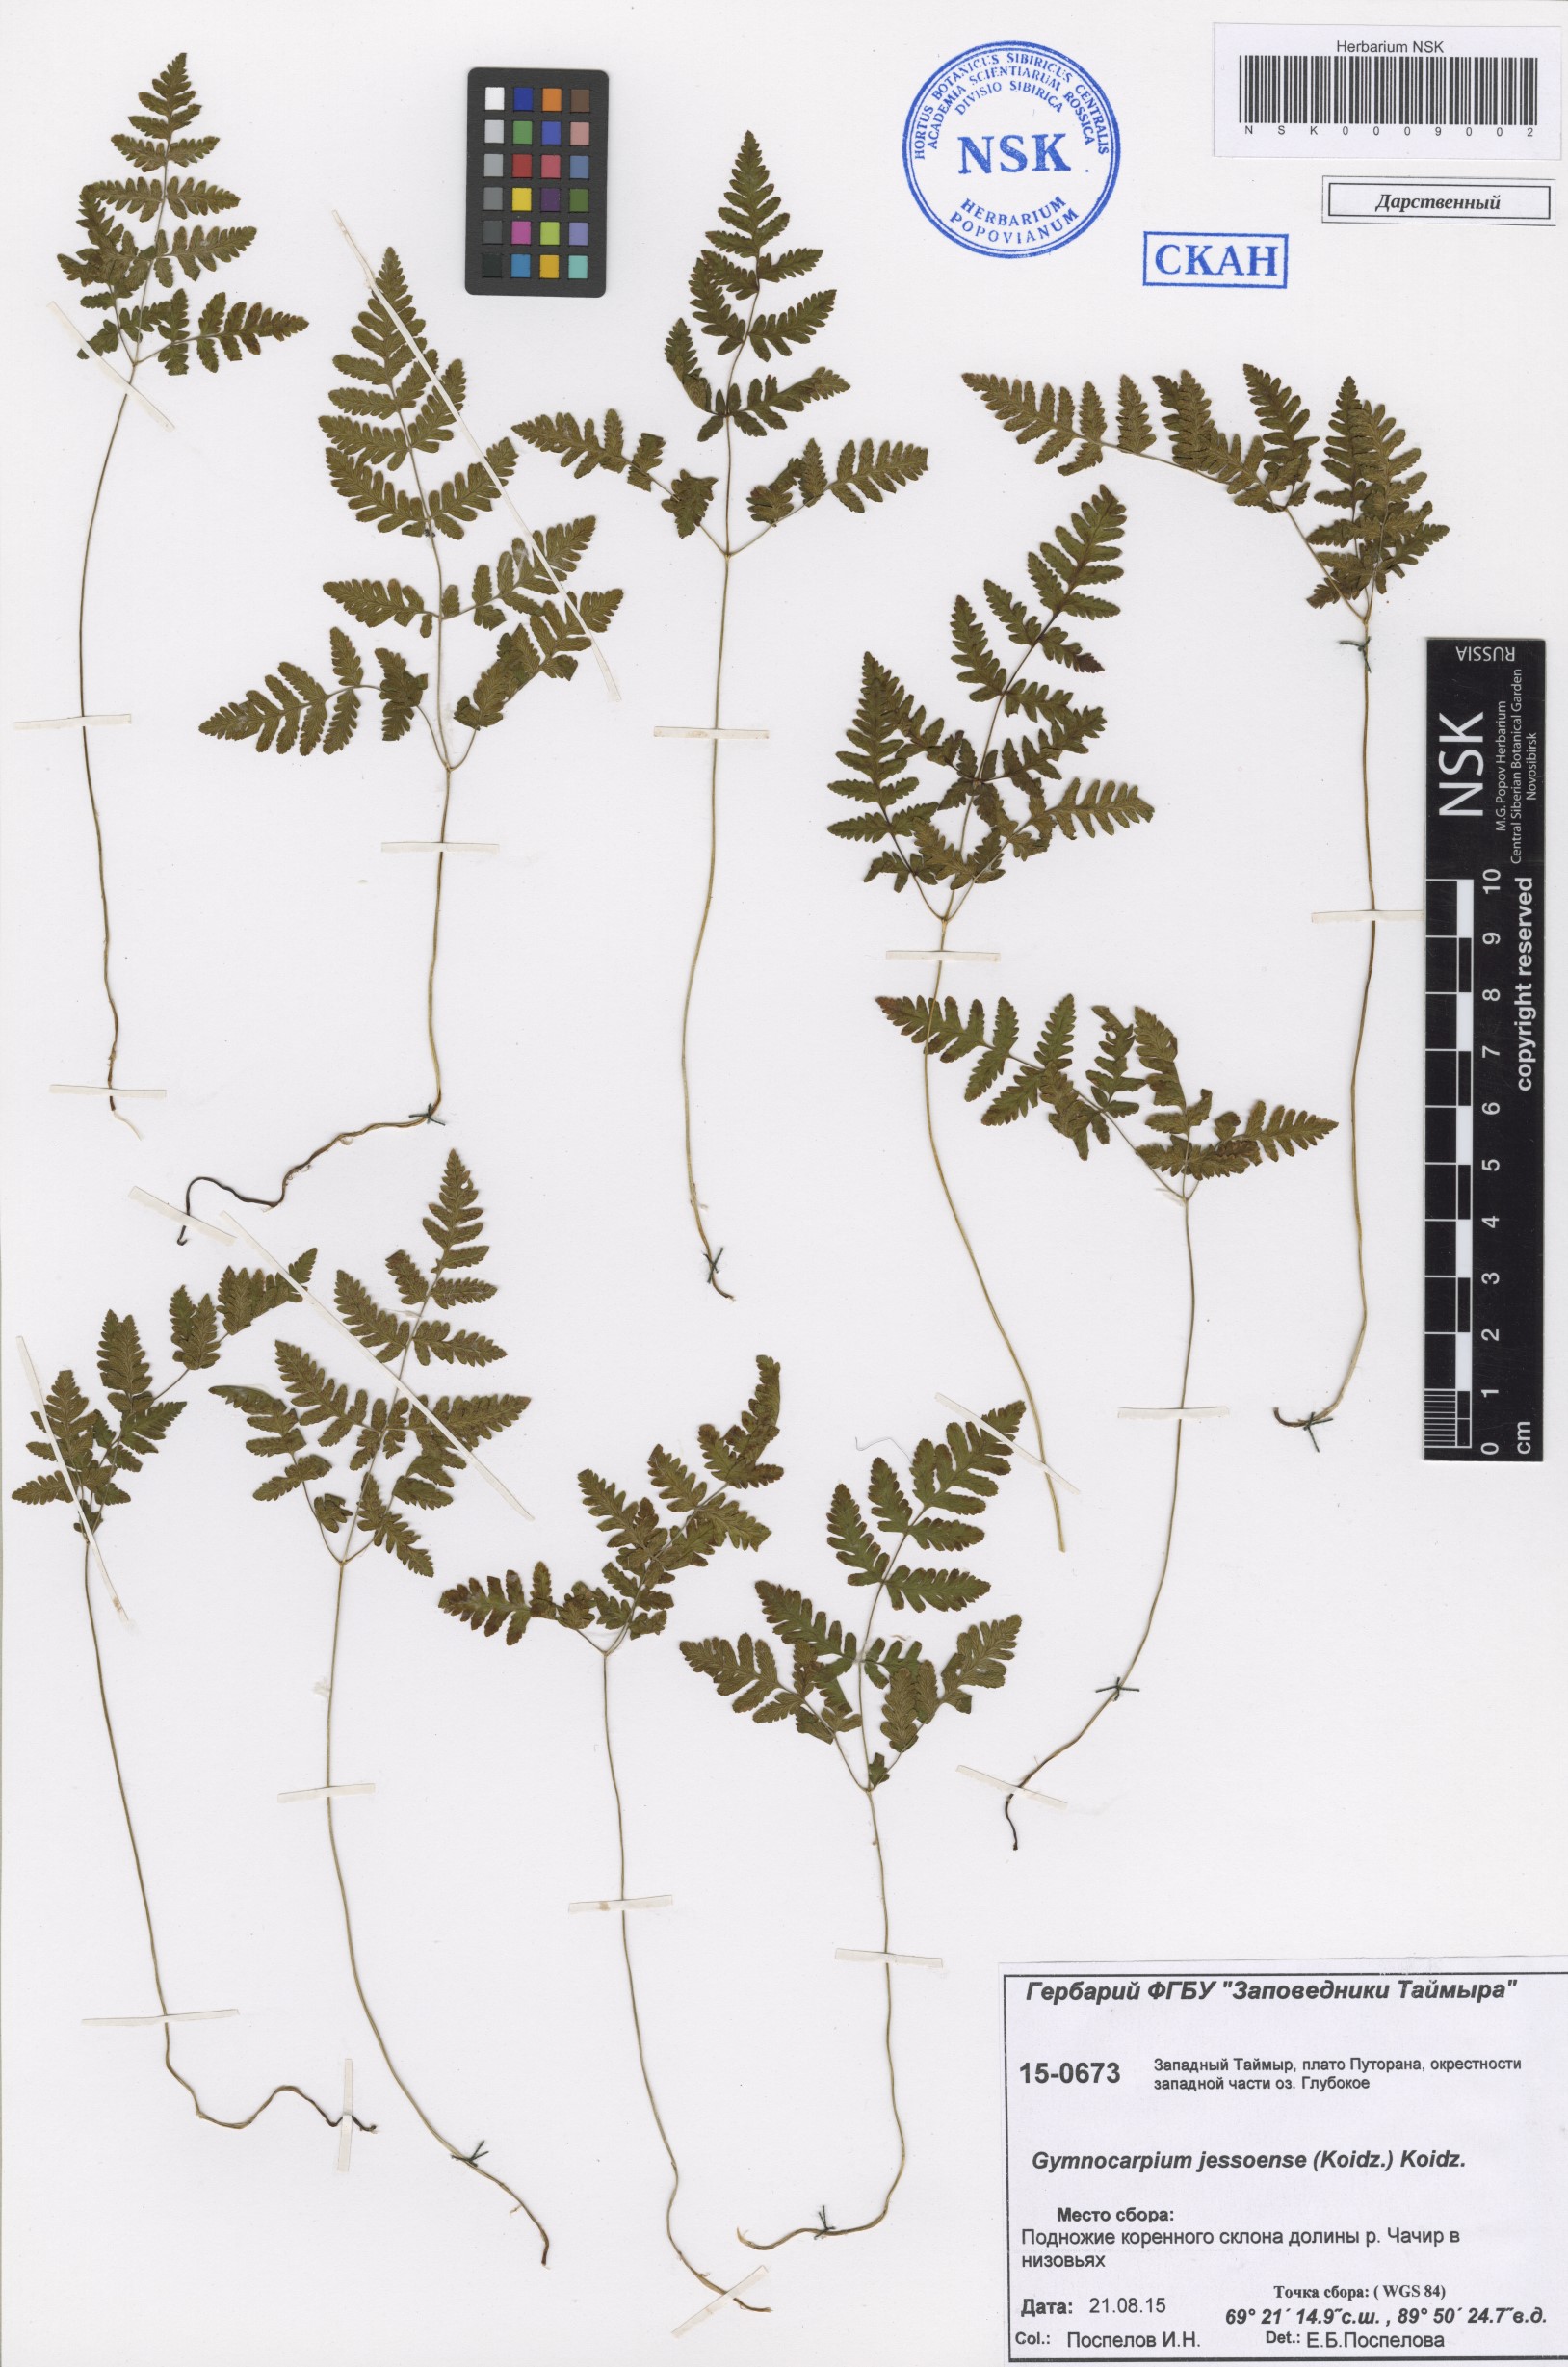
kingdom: Plantae
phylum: Tracheophyta
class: Polypodiopsida
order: Polypodiales
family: Cystopteridaceae
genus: Gymnocarpium
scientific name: Gymnocarpium jessoense
